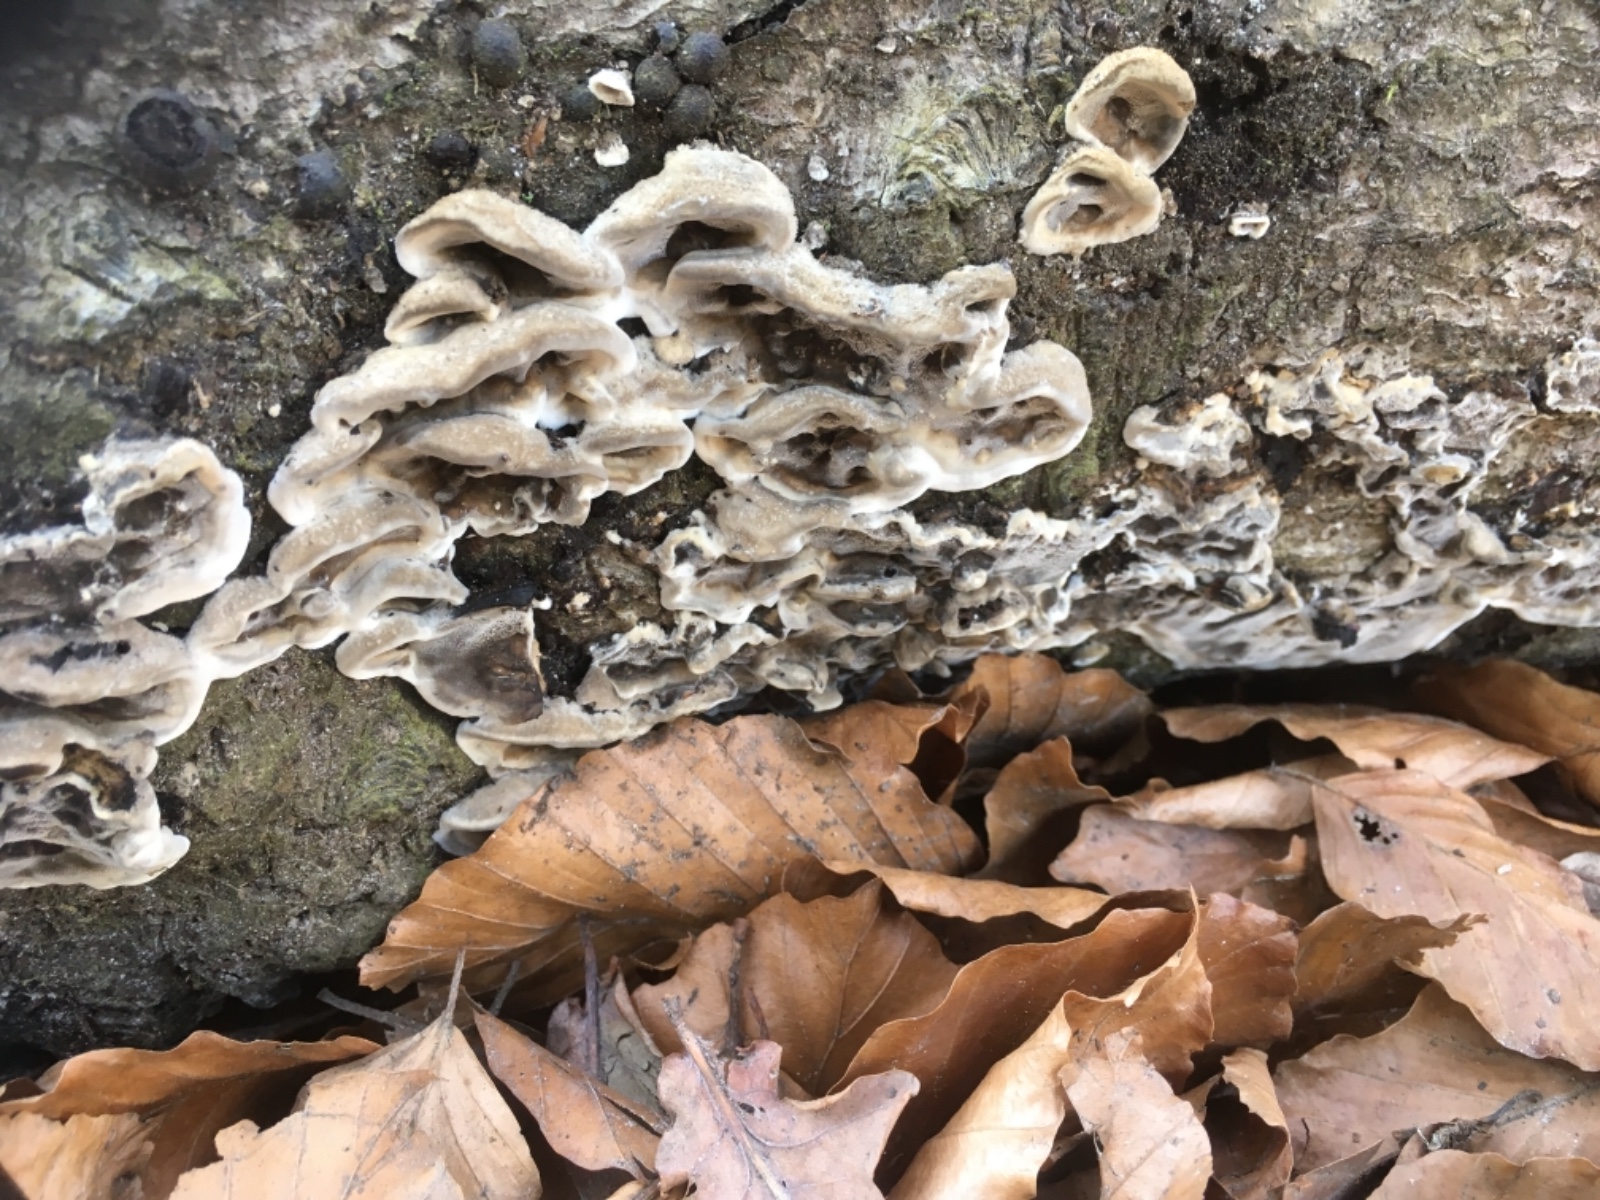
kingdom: Fungi
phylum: Basidiomycota
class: Agaricomycetes
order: Polyporales
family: Phanerochaetaceae
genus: Bjerkandera
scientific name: Bjerkandera adusta
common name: sveden sodporesvamp
